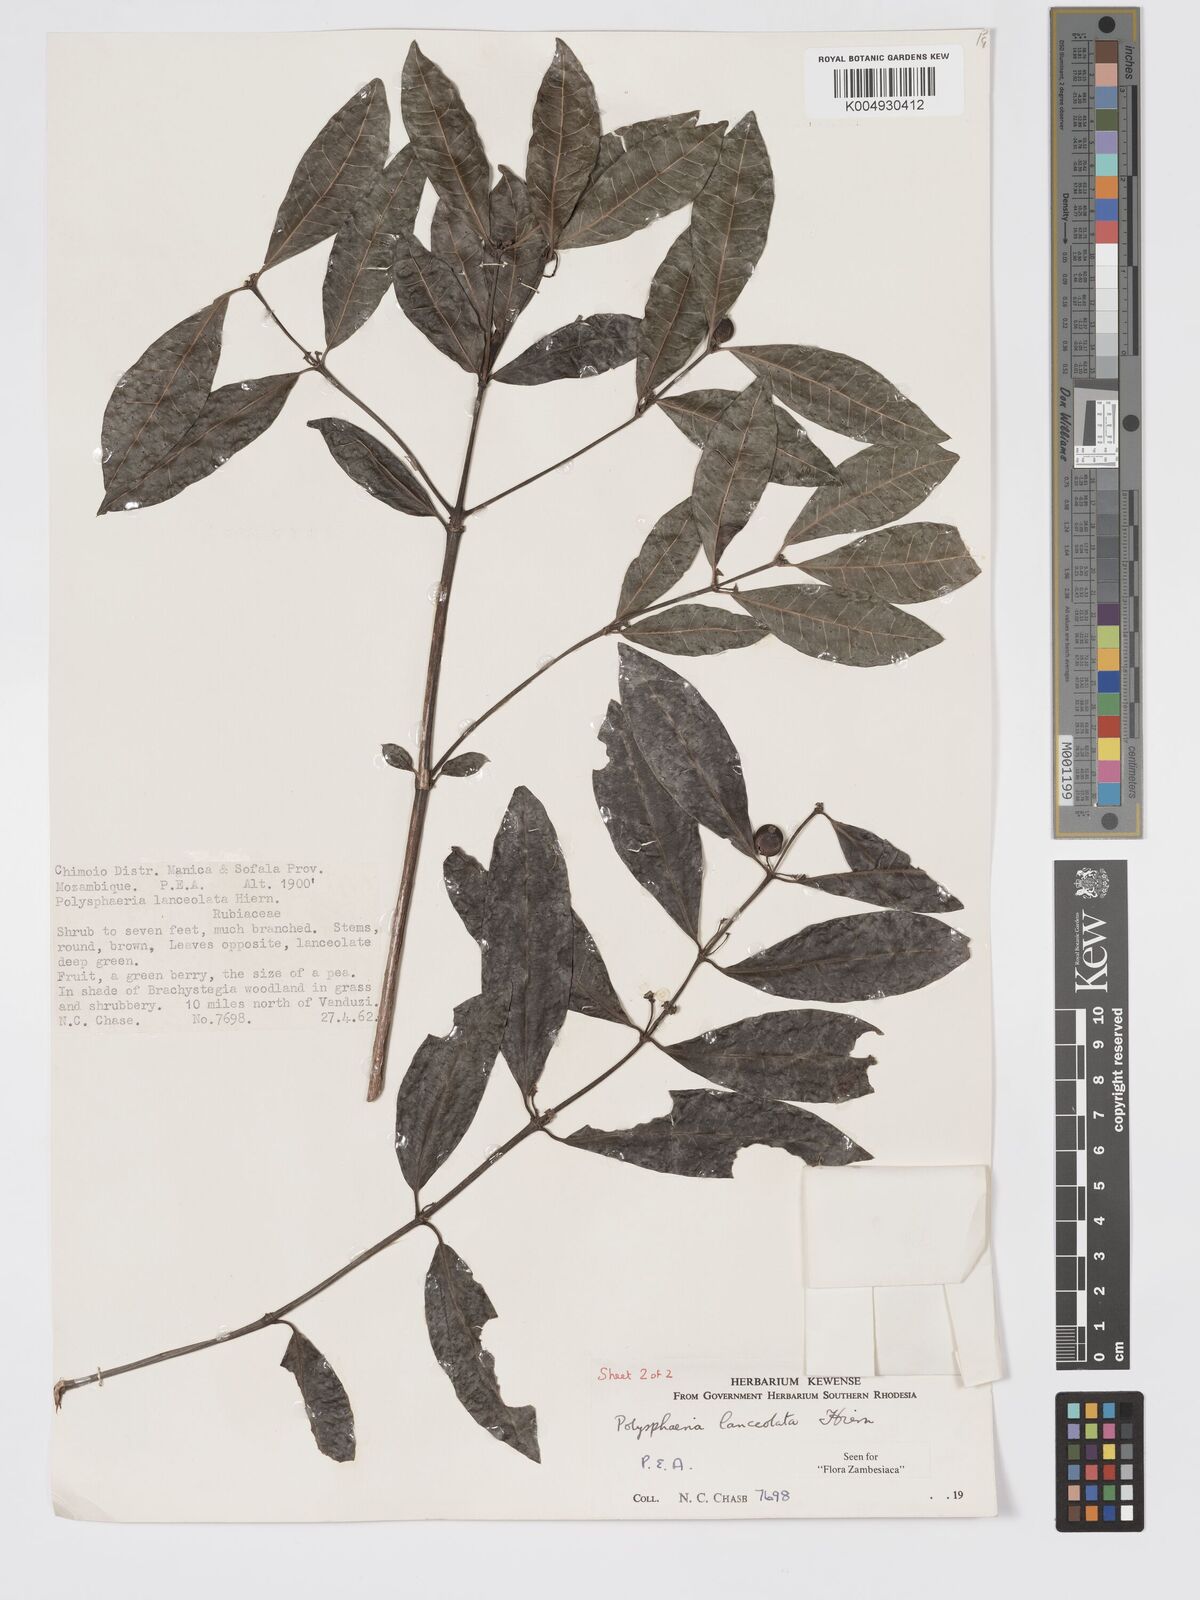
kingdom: Plantae
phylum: Tracheophyta
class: Magnoliopsida
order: Gentianales
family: Rubiaceae
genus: Polysphaeria
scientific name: Polysphaeria lanceolata
